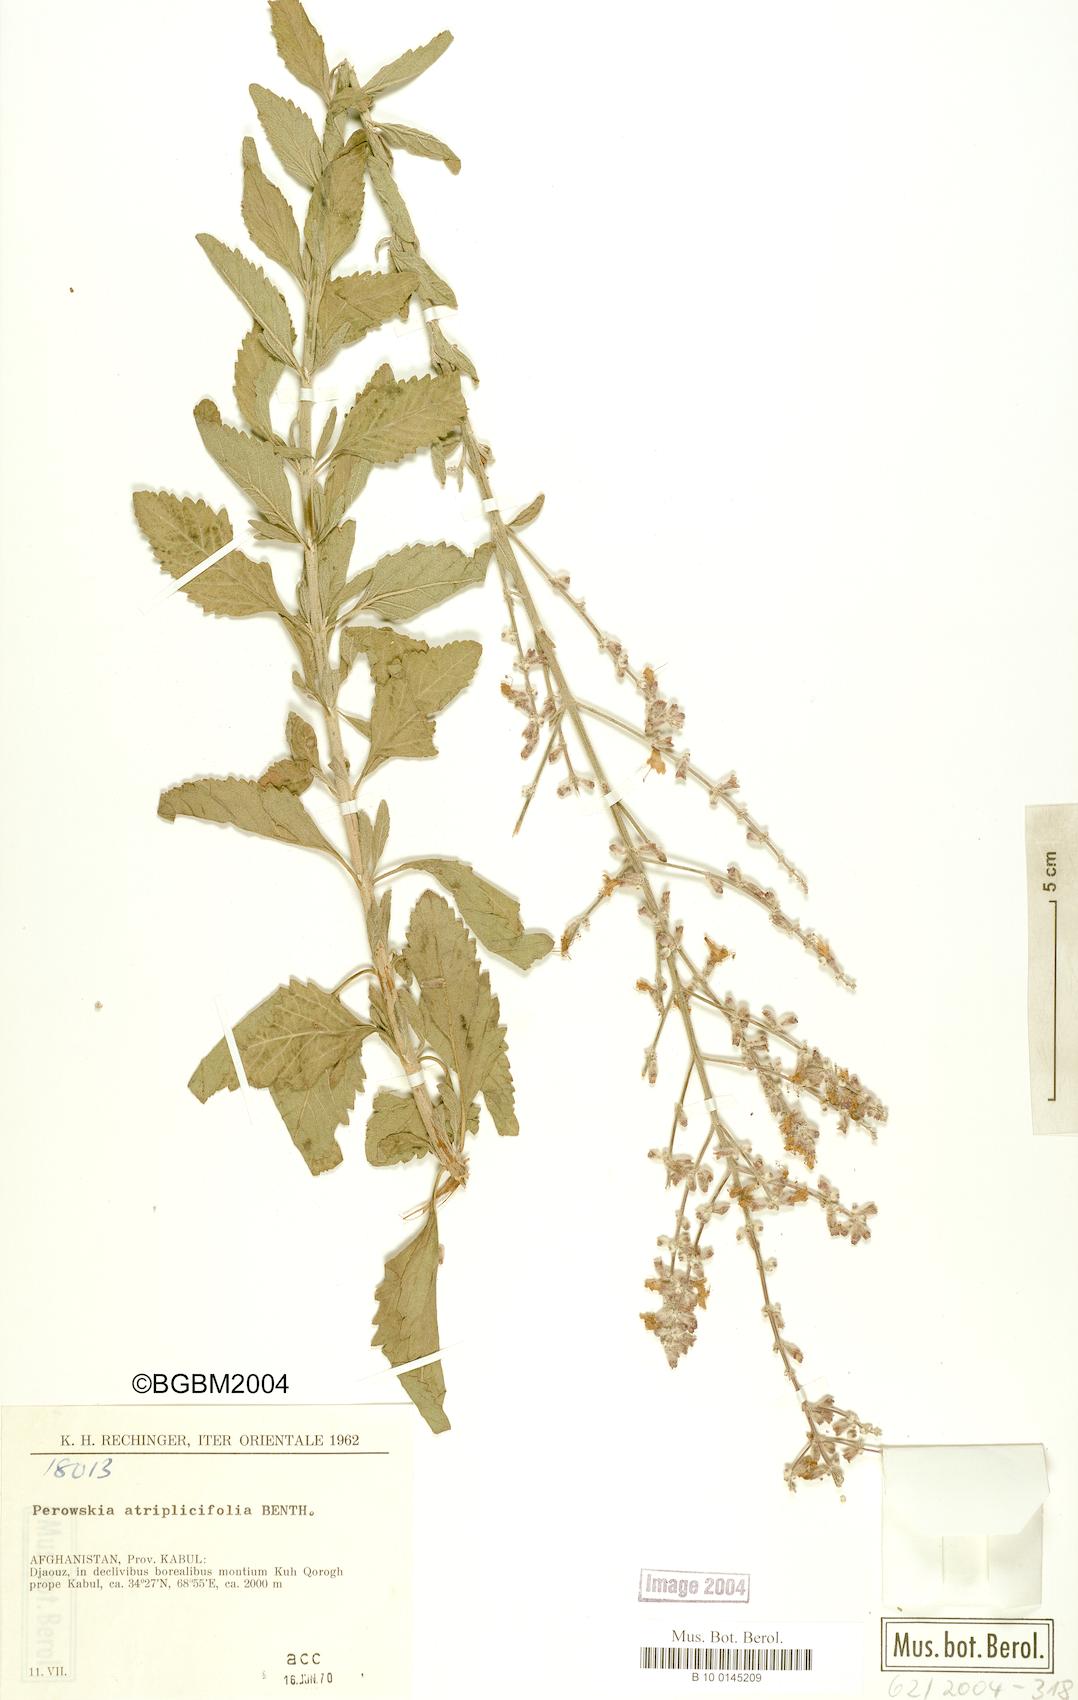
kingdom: Plantae
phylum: Tracheophyta
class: Magnoliopsida
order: Lamiales
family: Lamiaceae
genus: Salvia
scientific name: Salvia yangii
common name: Russian sage
